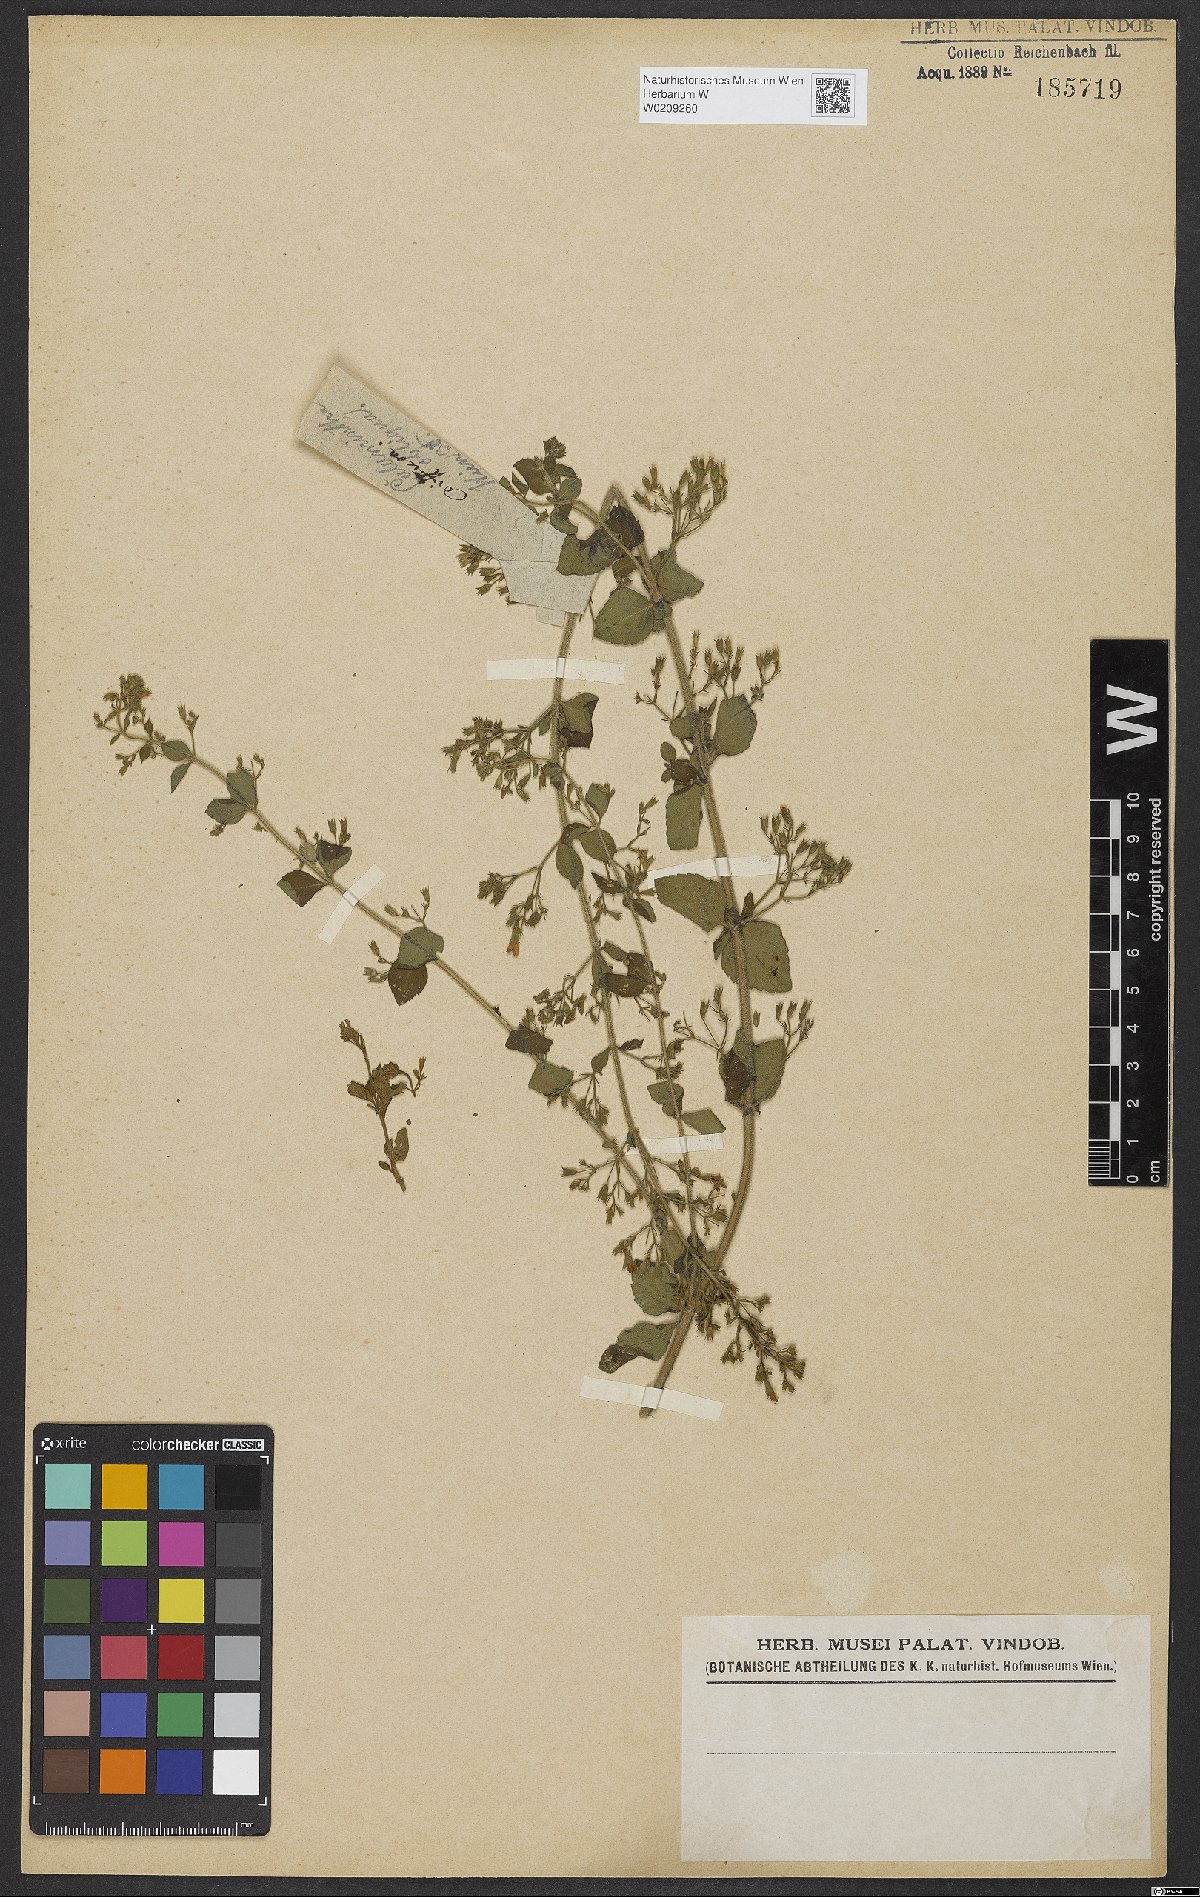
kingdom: Plantae
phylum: Tracheophyta
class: Magnoliopsida
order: Lamiales
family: Lamiaceae
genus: Clinopodium
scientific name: Clinopodium nepeta
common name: Lesser calamint
